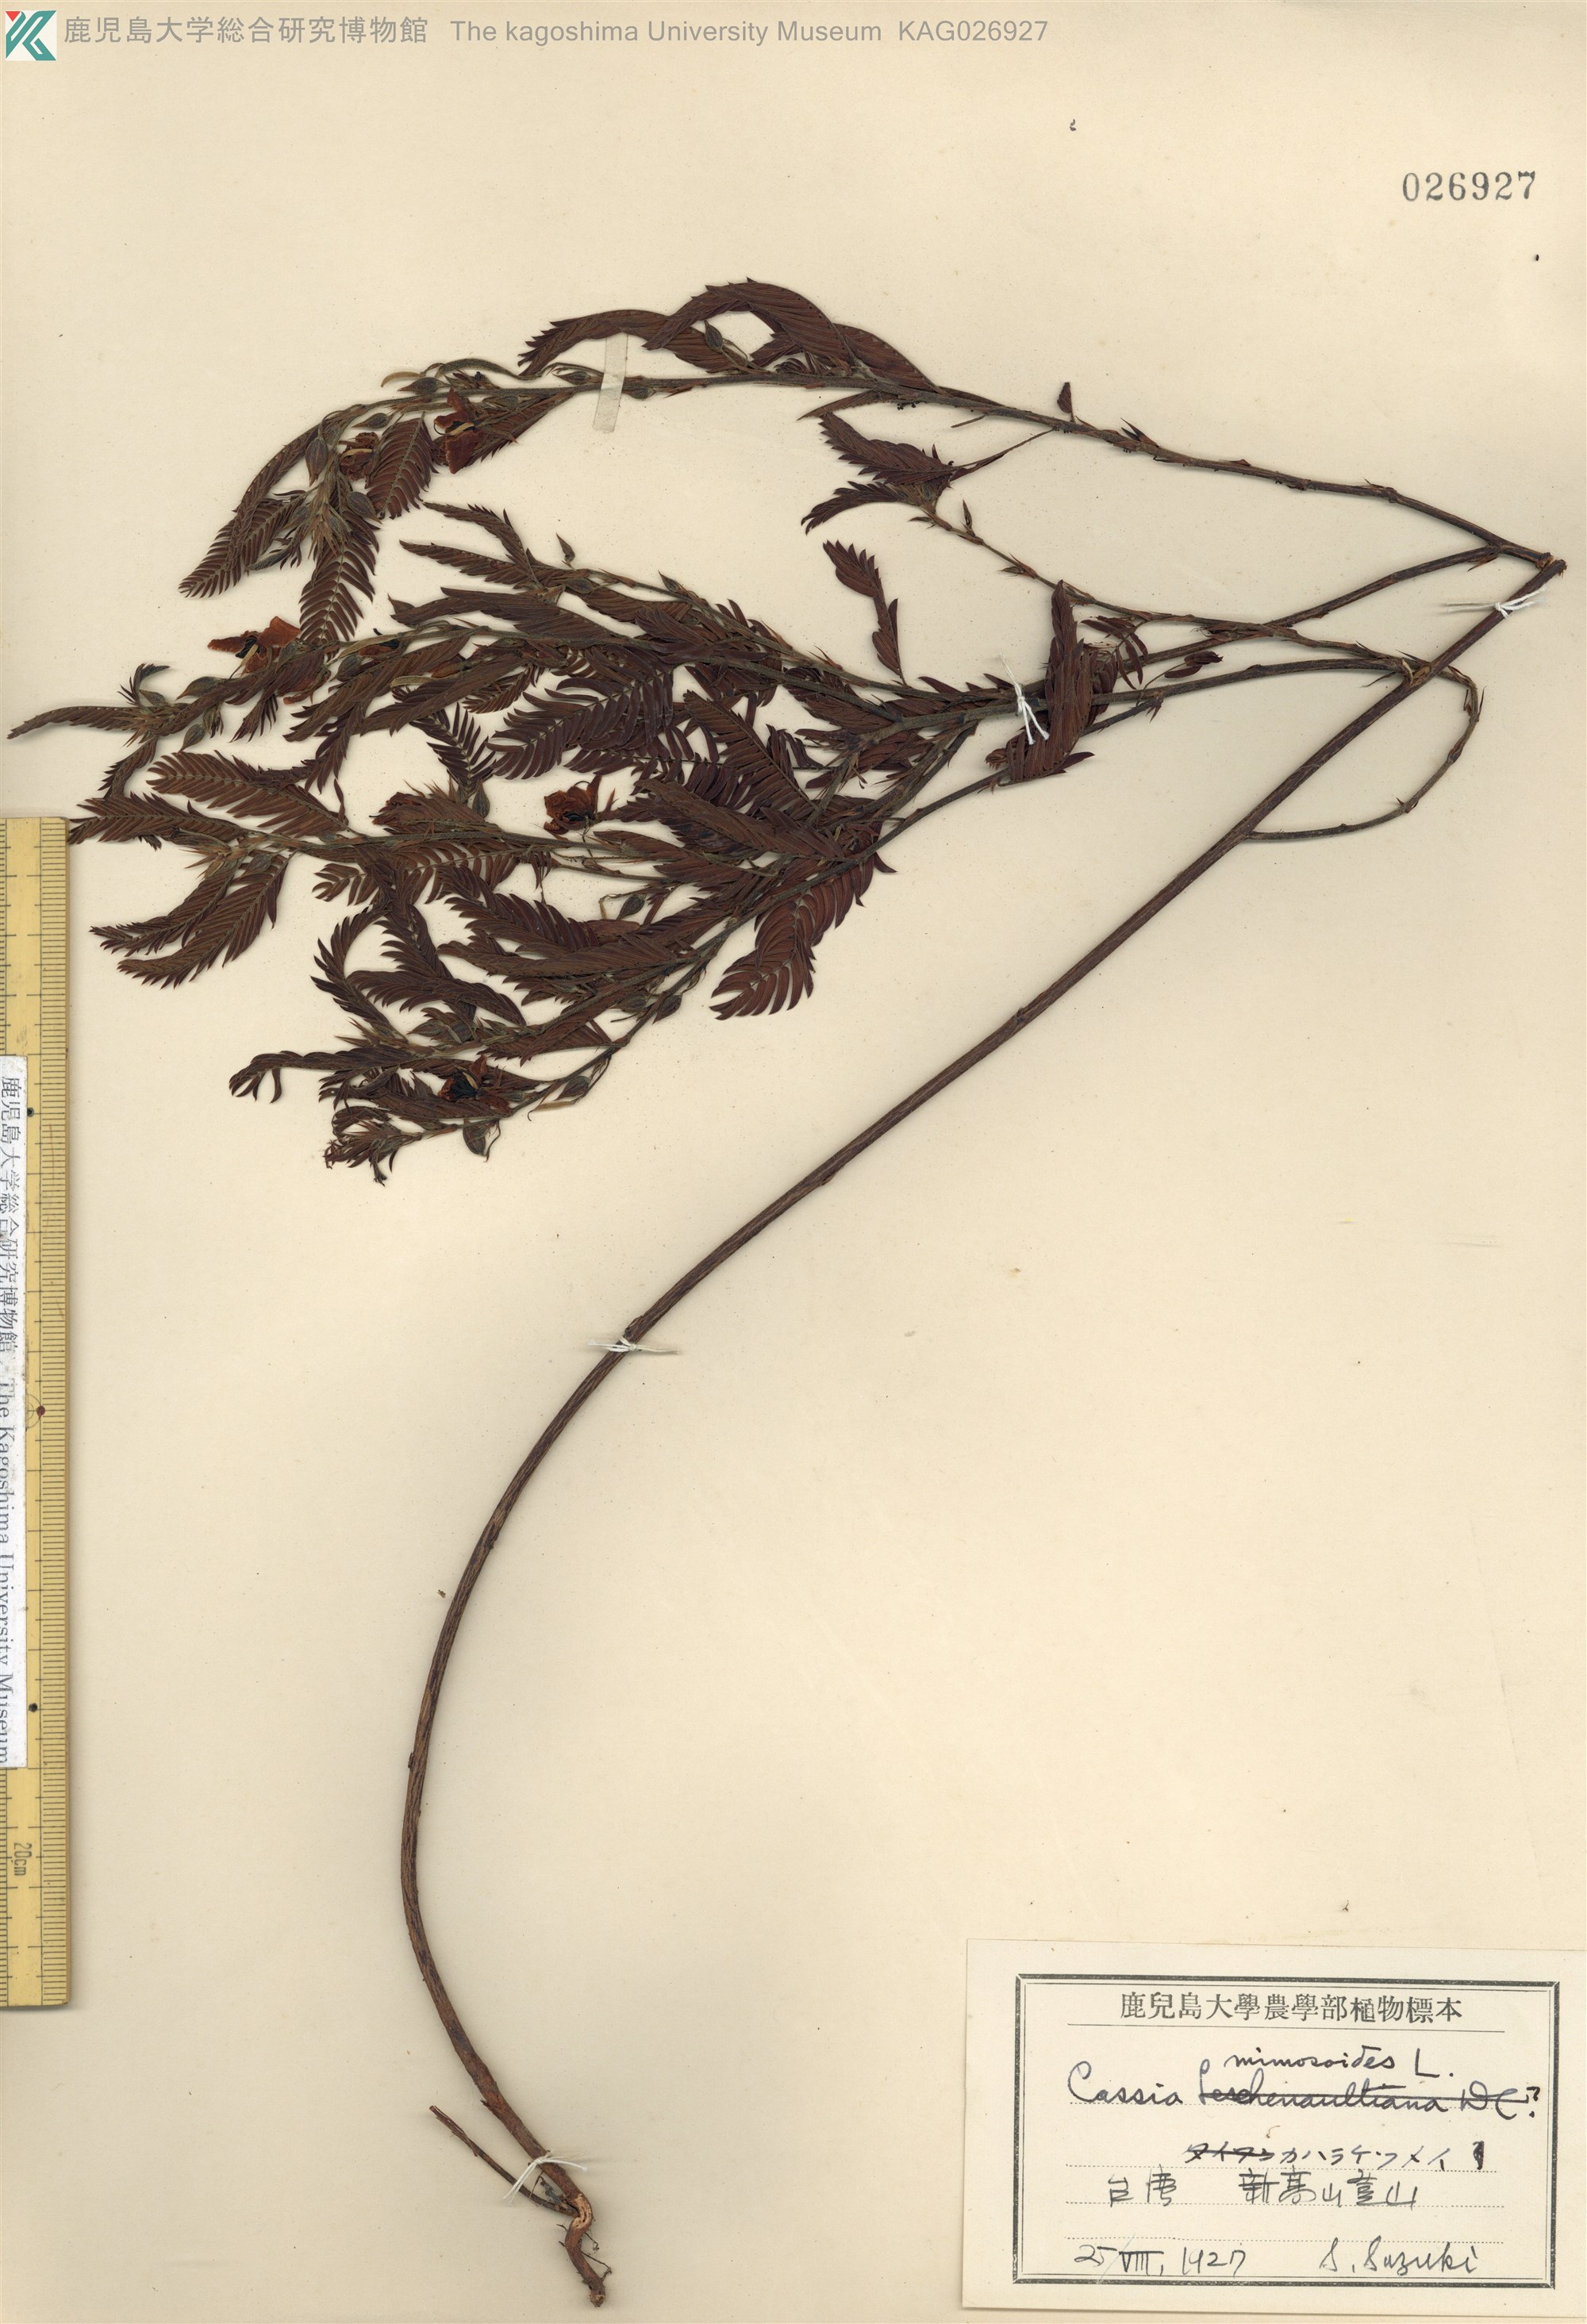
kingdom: Plantae
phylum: Tracheophyta
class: Magnoliopsida
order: Fabales
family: Fabaceae
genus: Chamaecrista
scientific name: Chamaecrista nomame
